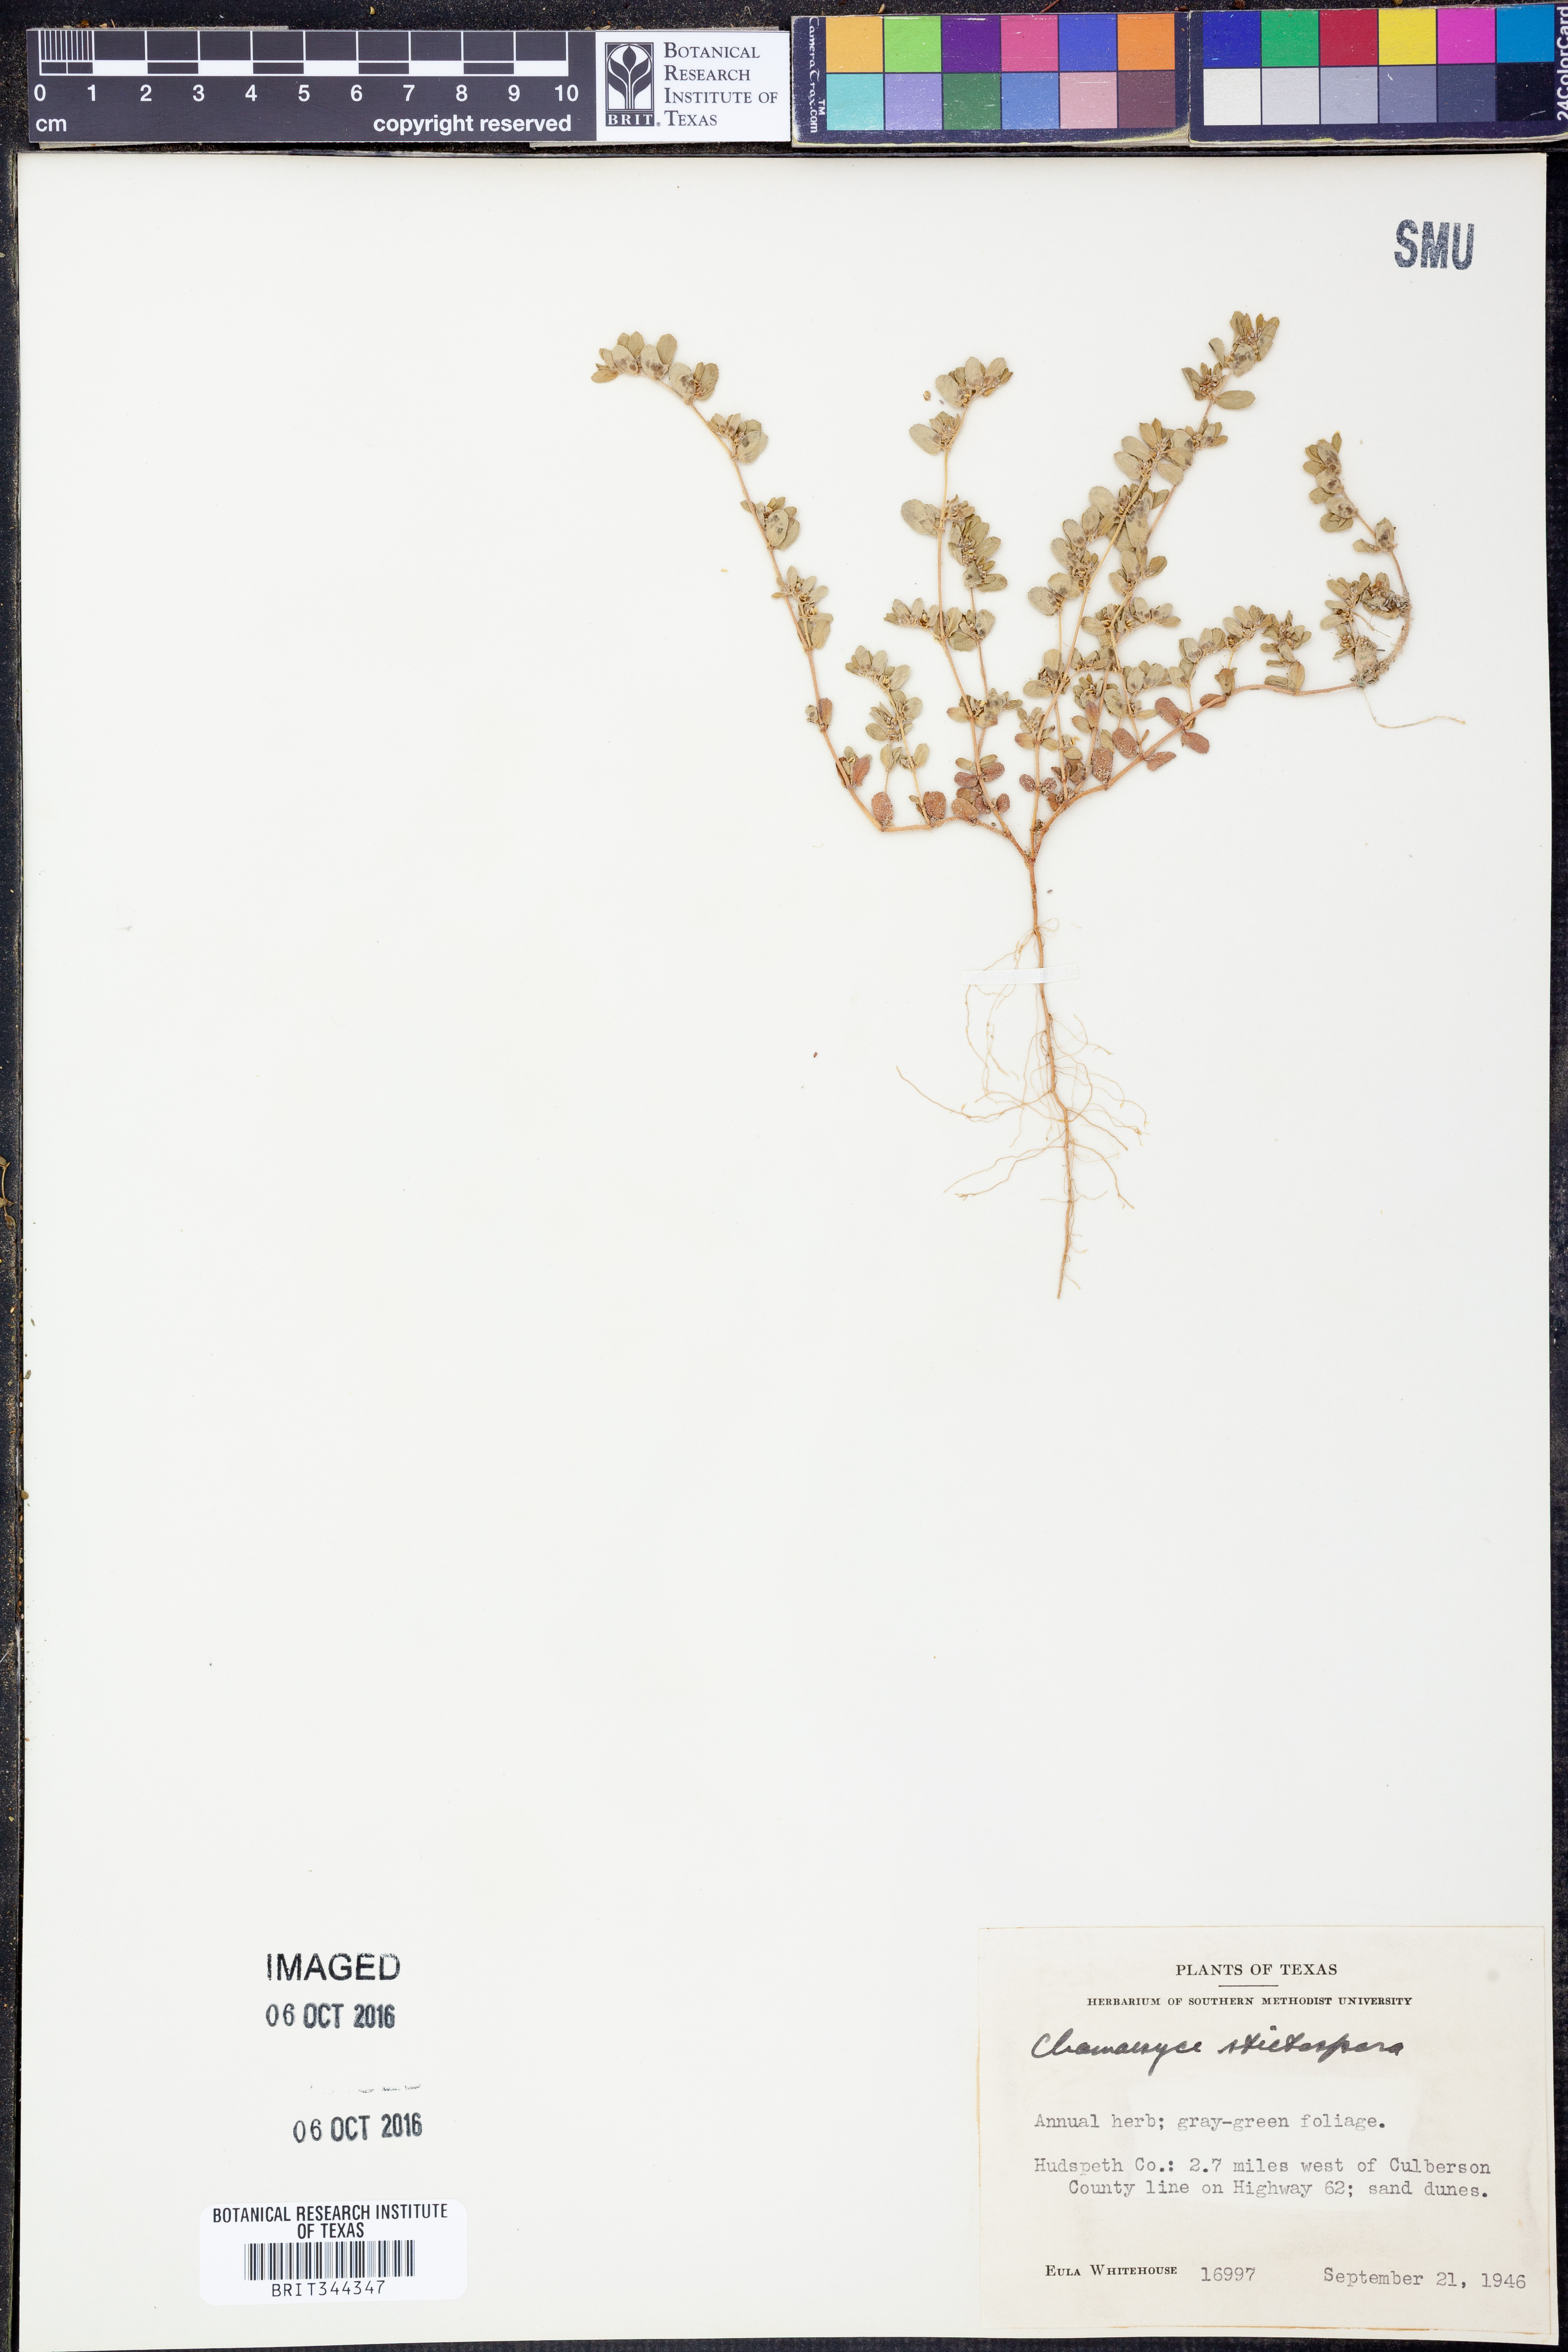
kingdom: Plantae
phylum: Tracheophyta
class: Magnoliopsida
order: Malpighiales
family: Euphorbiaceae
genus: Euphorbia
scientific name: Euphorbia stictospora
